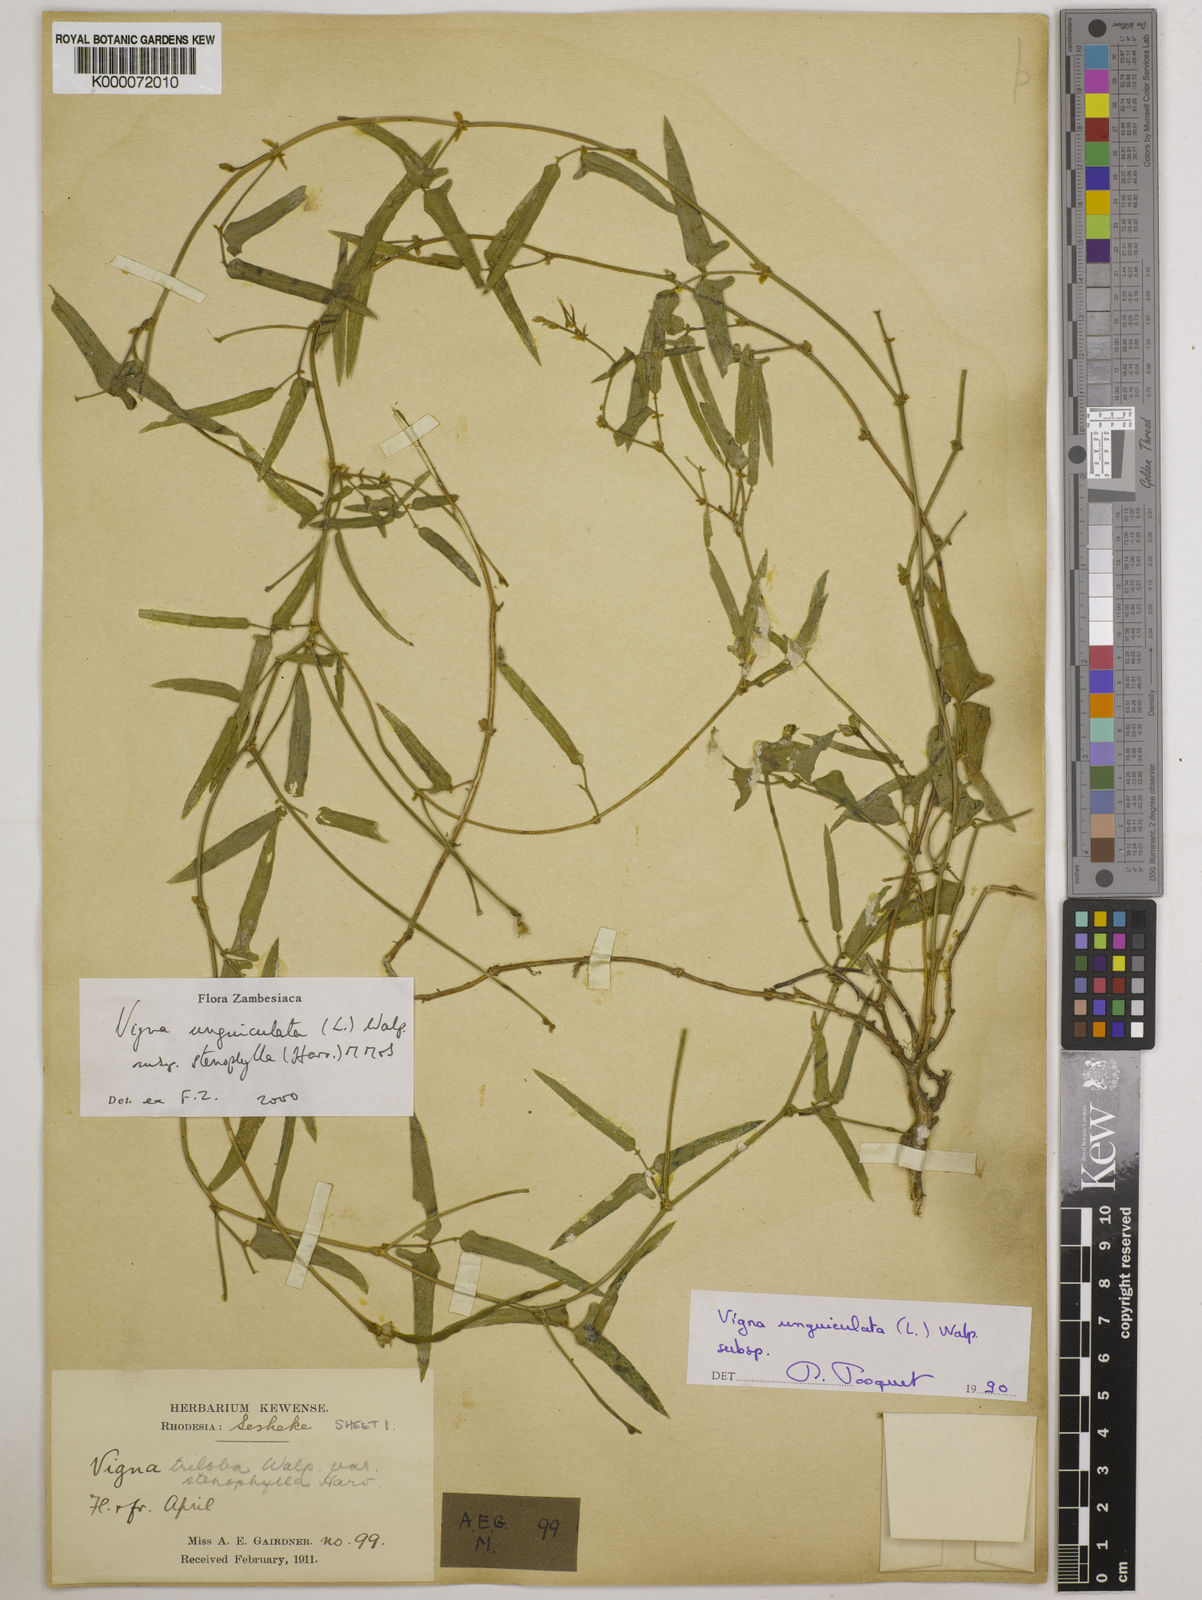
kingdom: Plantae
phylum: Tracheophyta
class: Magnoliopsida
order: Fabales
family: Fabaceae
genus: Vigna
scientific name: Vigna unguiculata
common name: Cowpea
